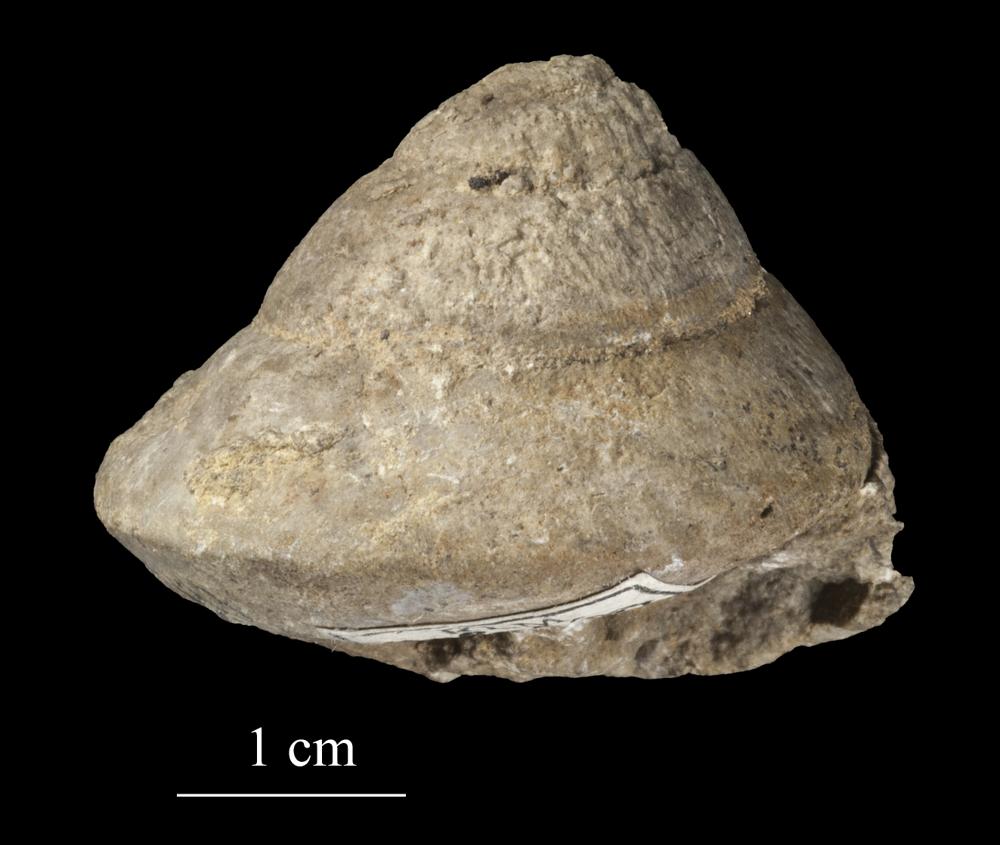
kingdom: Animalia
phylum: Mollusca
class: Gastropoda
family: Holopeidae
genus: Holopea
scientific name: Holopea ampullacea
